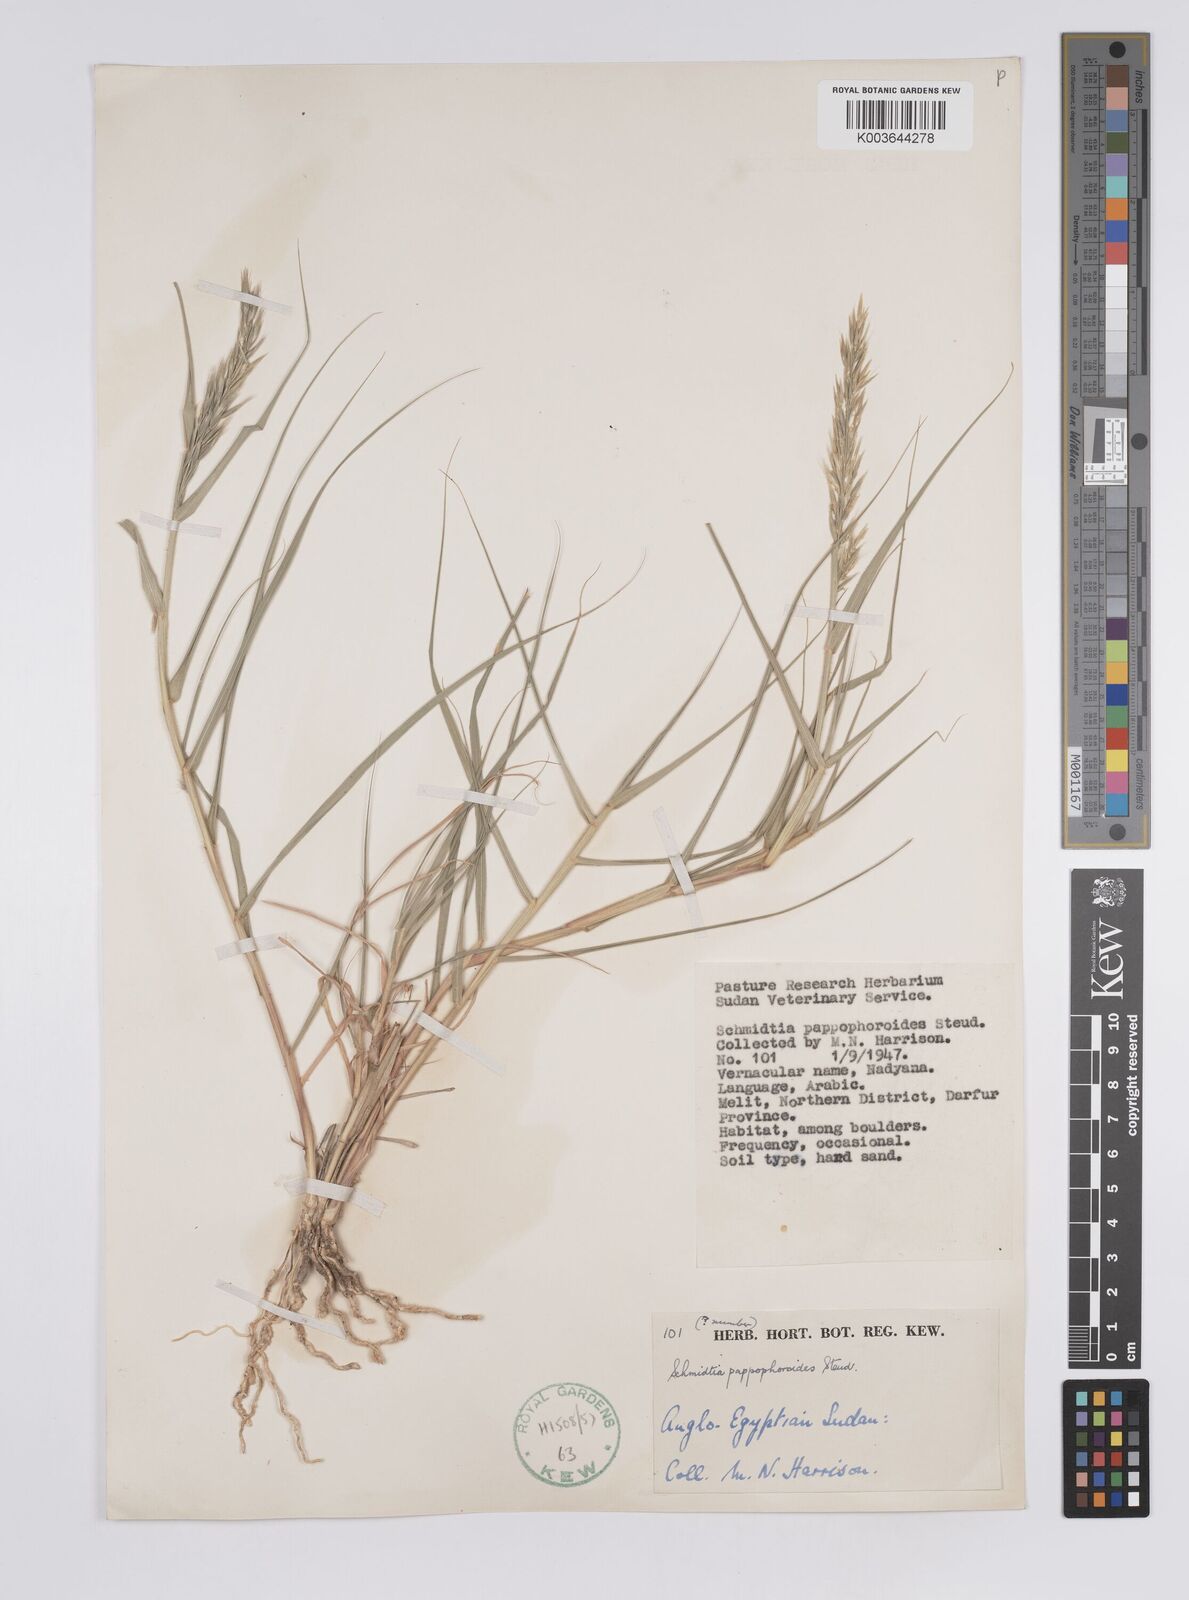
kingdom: Plantae
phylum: Tracheophyta
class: Liliopsida
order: Poales
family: Poaceae
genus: Schmidtia
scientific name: Schmidtia pappophoroides
